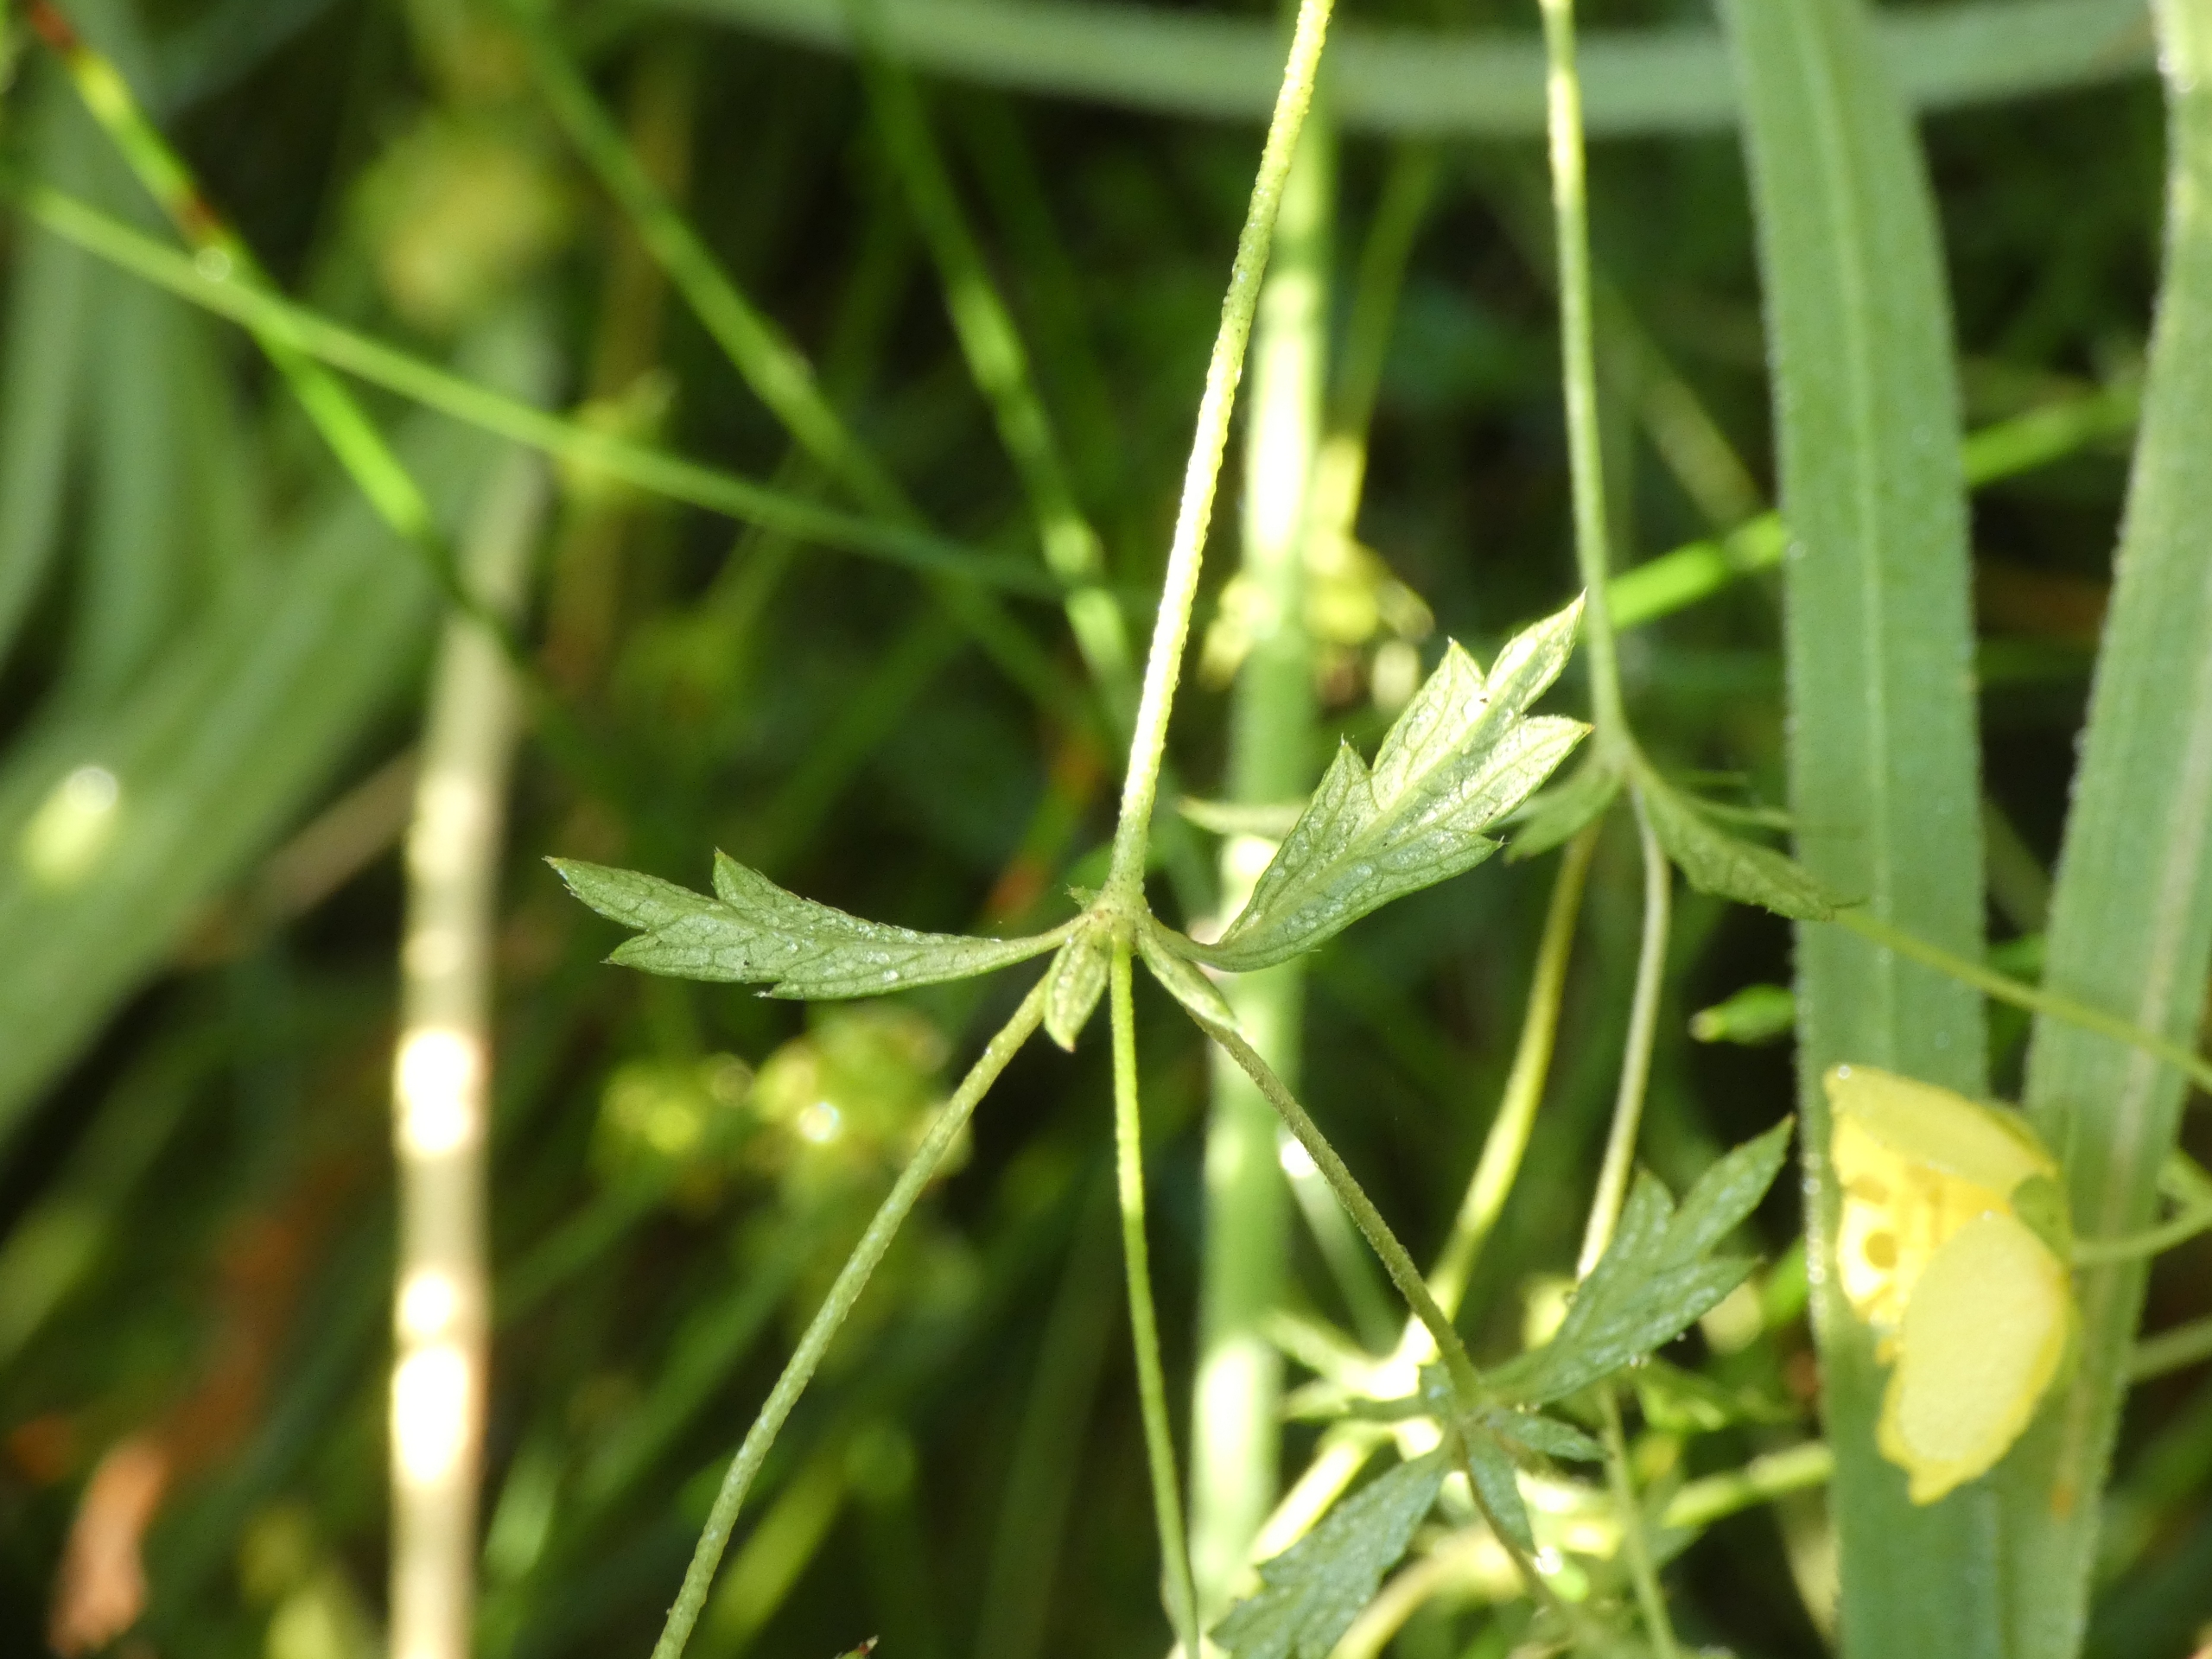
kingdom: Plantae
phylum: Tracheophyta
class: Magnoliopsida
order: Rosales
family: Rosaceae
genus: Potentilla
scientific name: Potentilla erecta
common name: Tormentil
